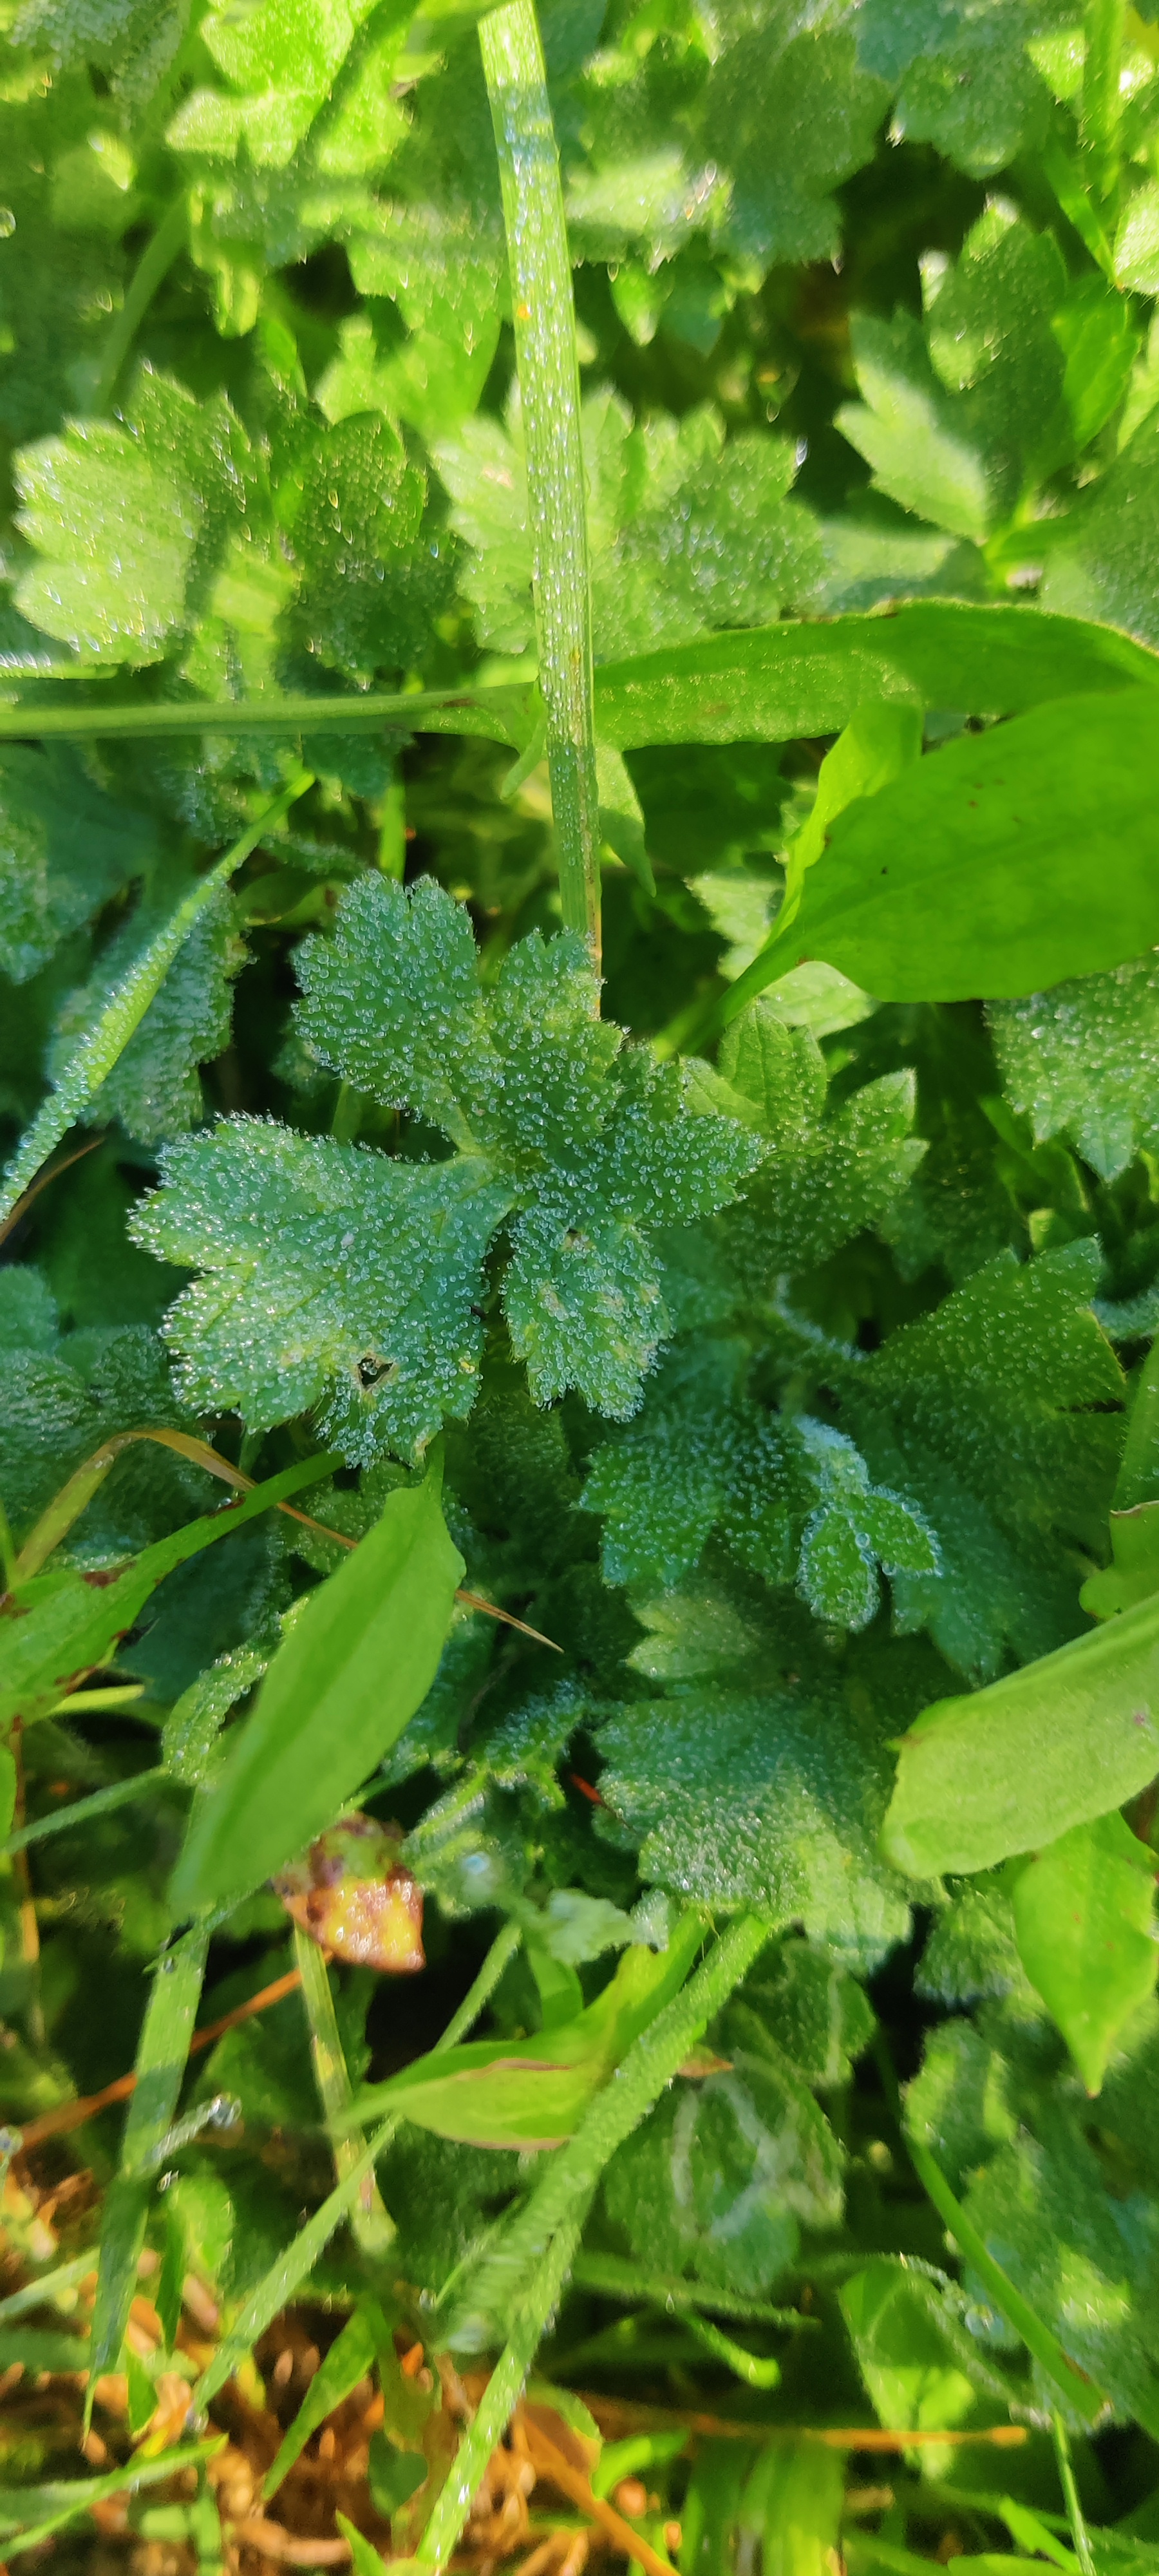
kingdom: Plantae
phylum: Tracheophyta
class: Magnoliopsida
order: Ranunculales
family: Ranunculaceae
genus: Ranunculus
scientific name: Ranunculus bulbosus
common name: Knold-ranunkel
